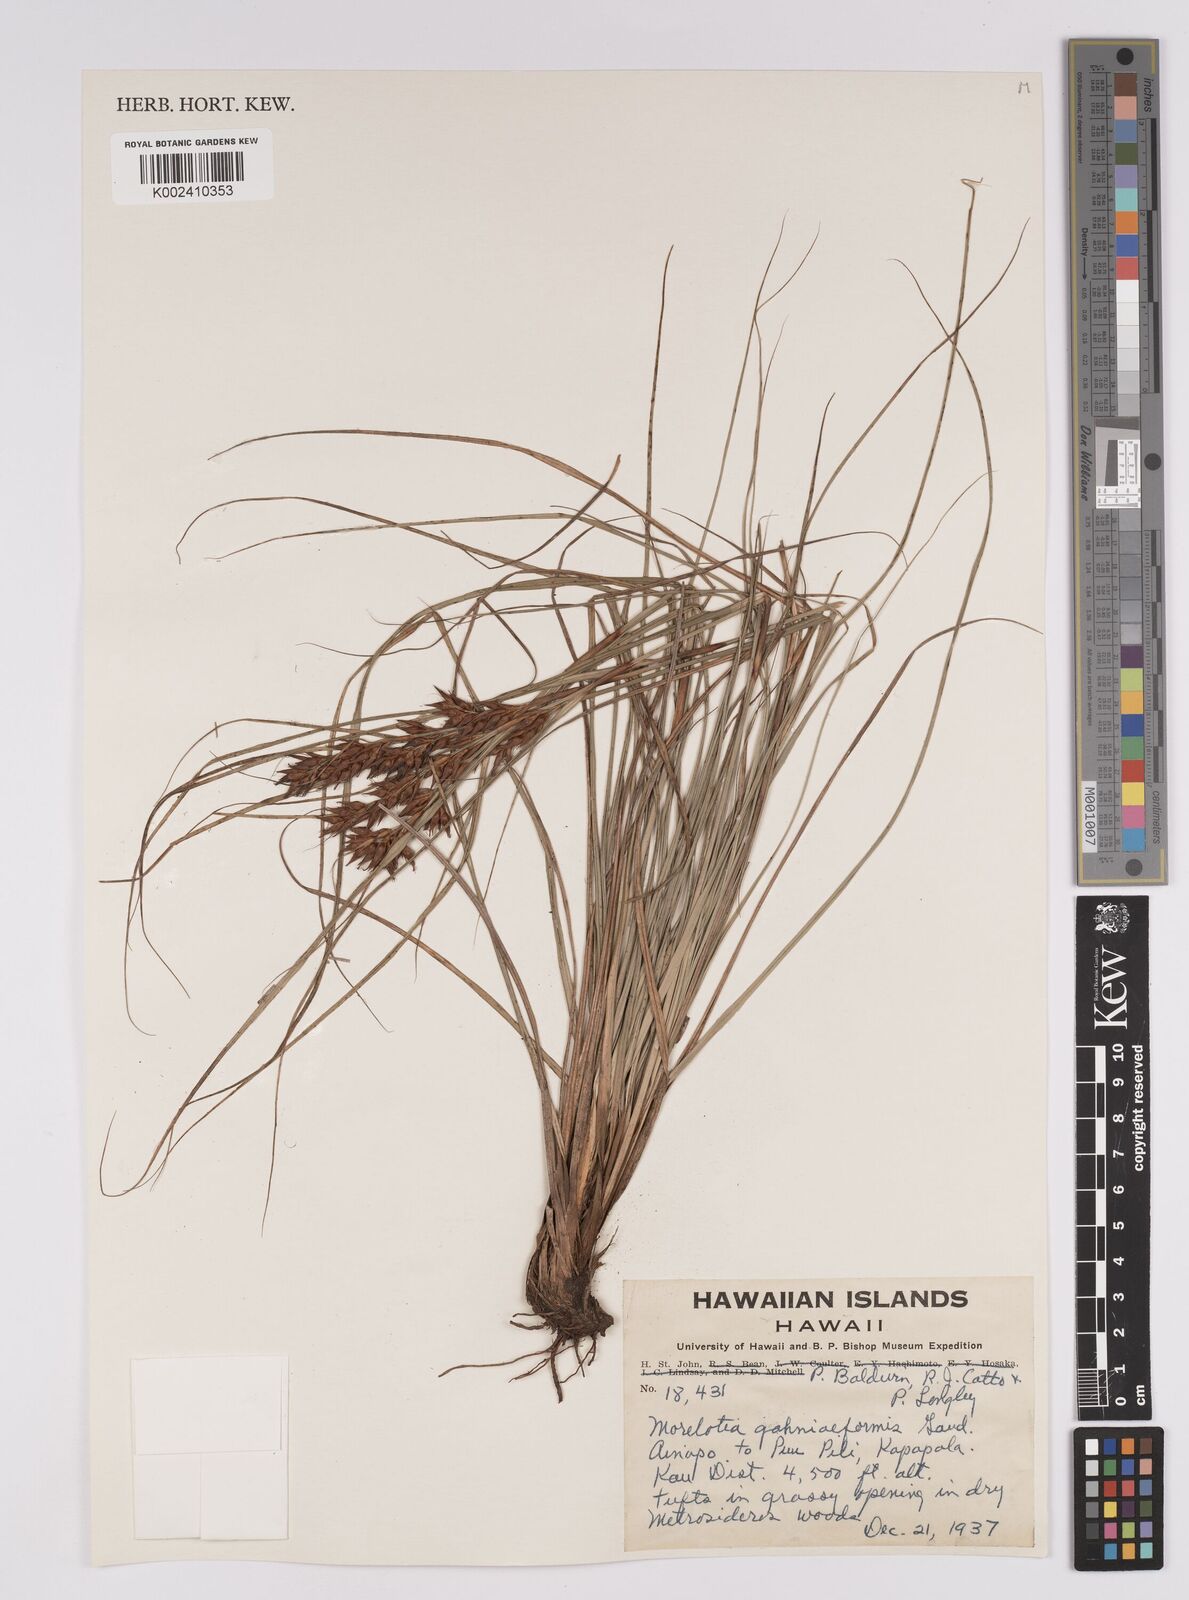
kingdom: Plantae
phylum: Tracheophyta
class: Liliopsida
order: Poales
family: Cyperaceae
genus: Morelotia
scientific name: Morelotia gahniiformis
